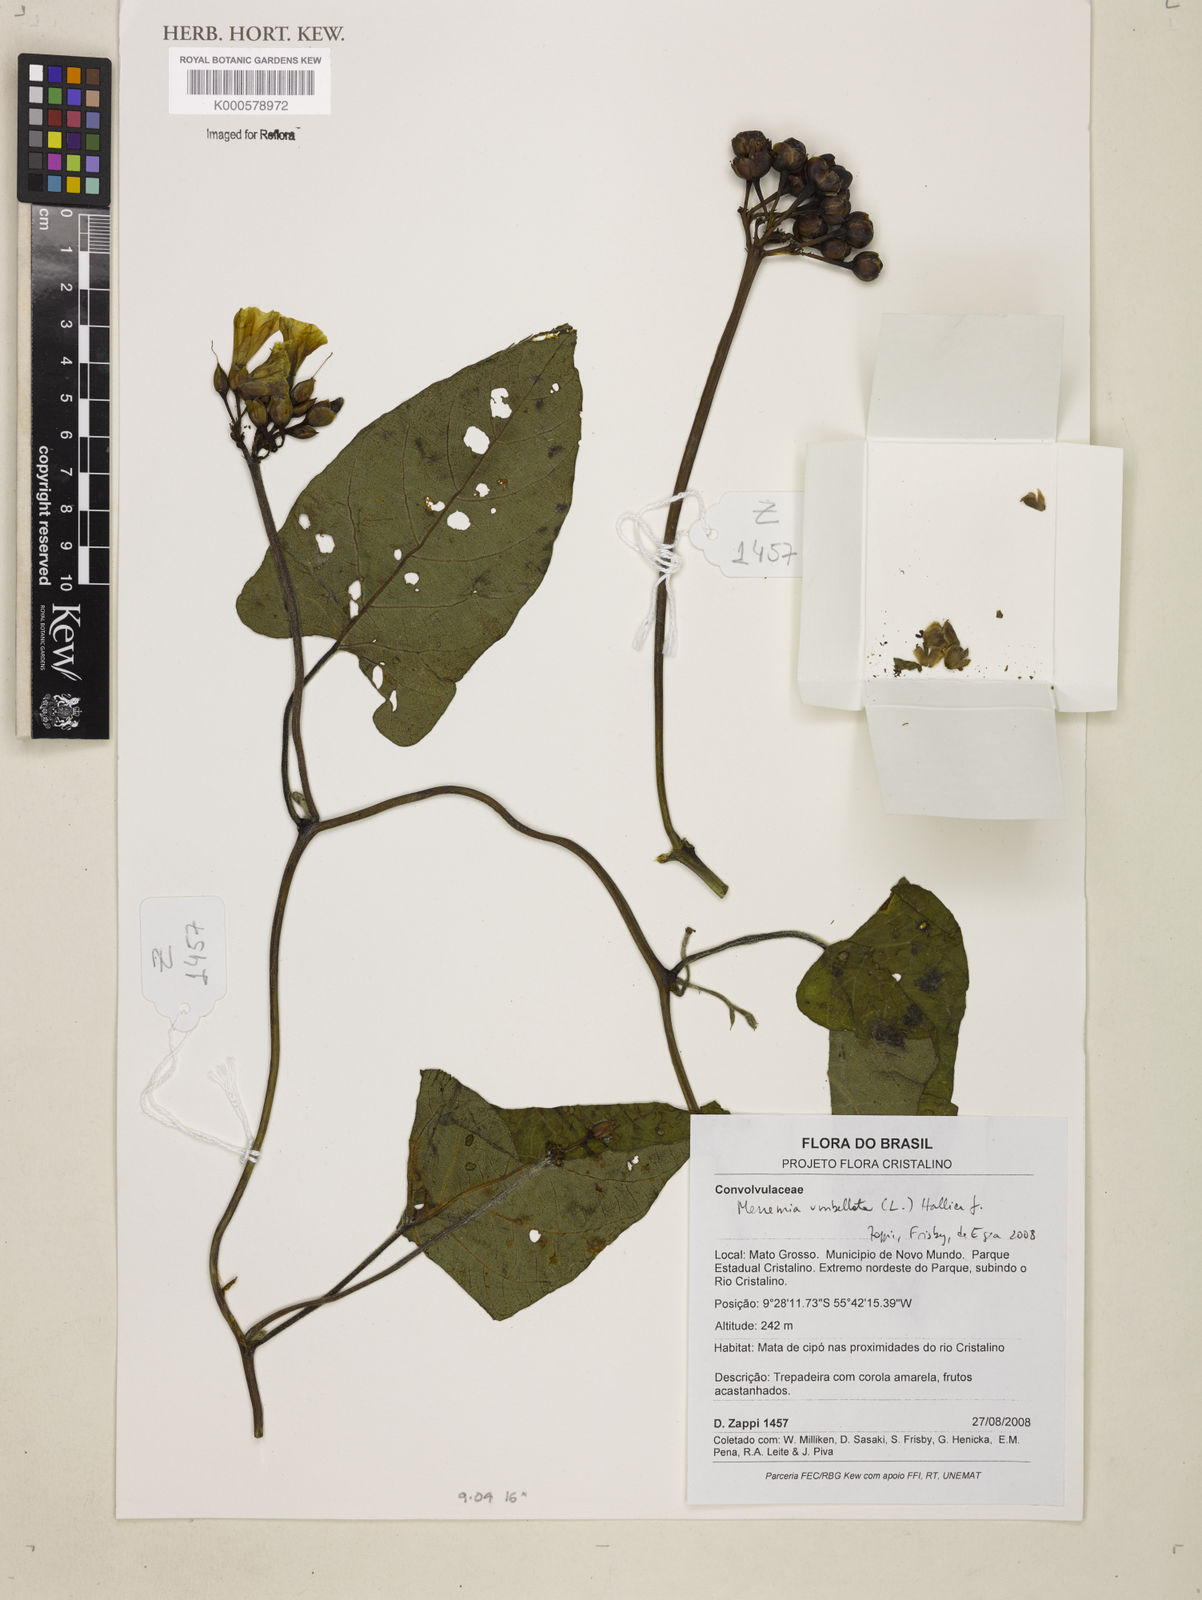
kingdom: Plantae
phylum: Tracheophyta
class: Magnoliopsida
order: Solanales
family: Convolvulaceae
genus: Camonea
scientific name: Camonea umbellata
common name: Hogvine
